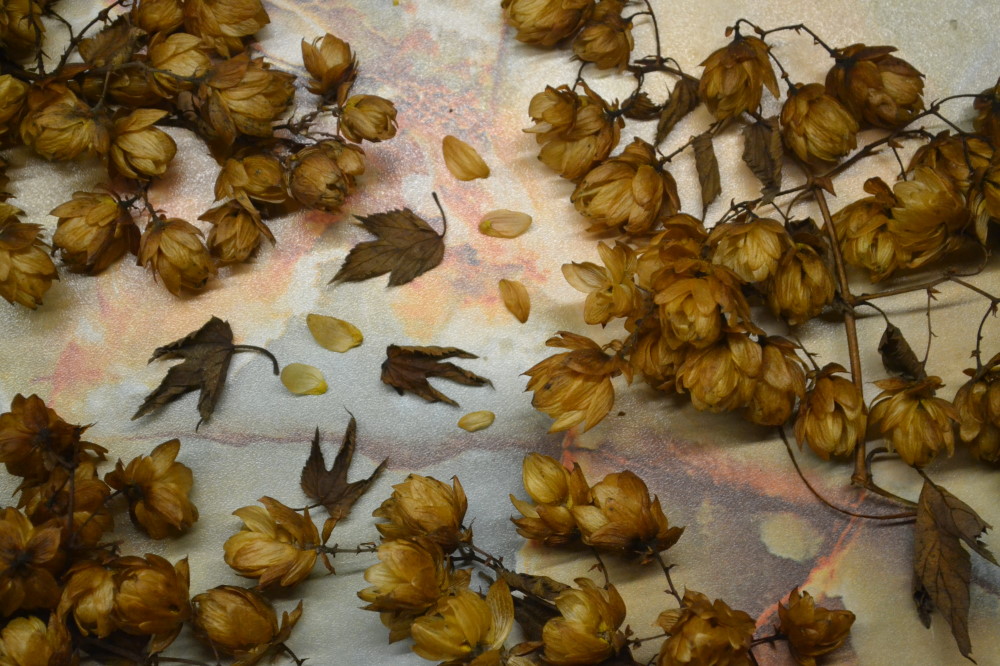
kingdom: Plantae
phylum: Tracheophyta
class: Magnoliopsida
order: Rosales
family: Cannabaceae
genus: Humulus
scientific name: Humulus lupulus
